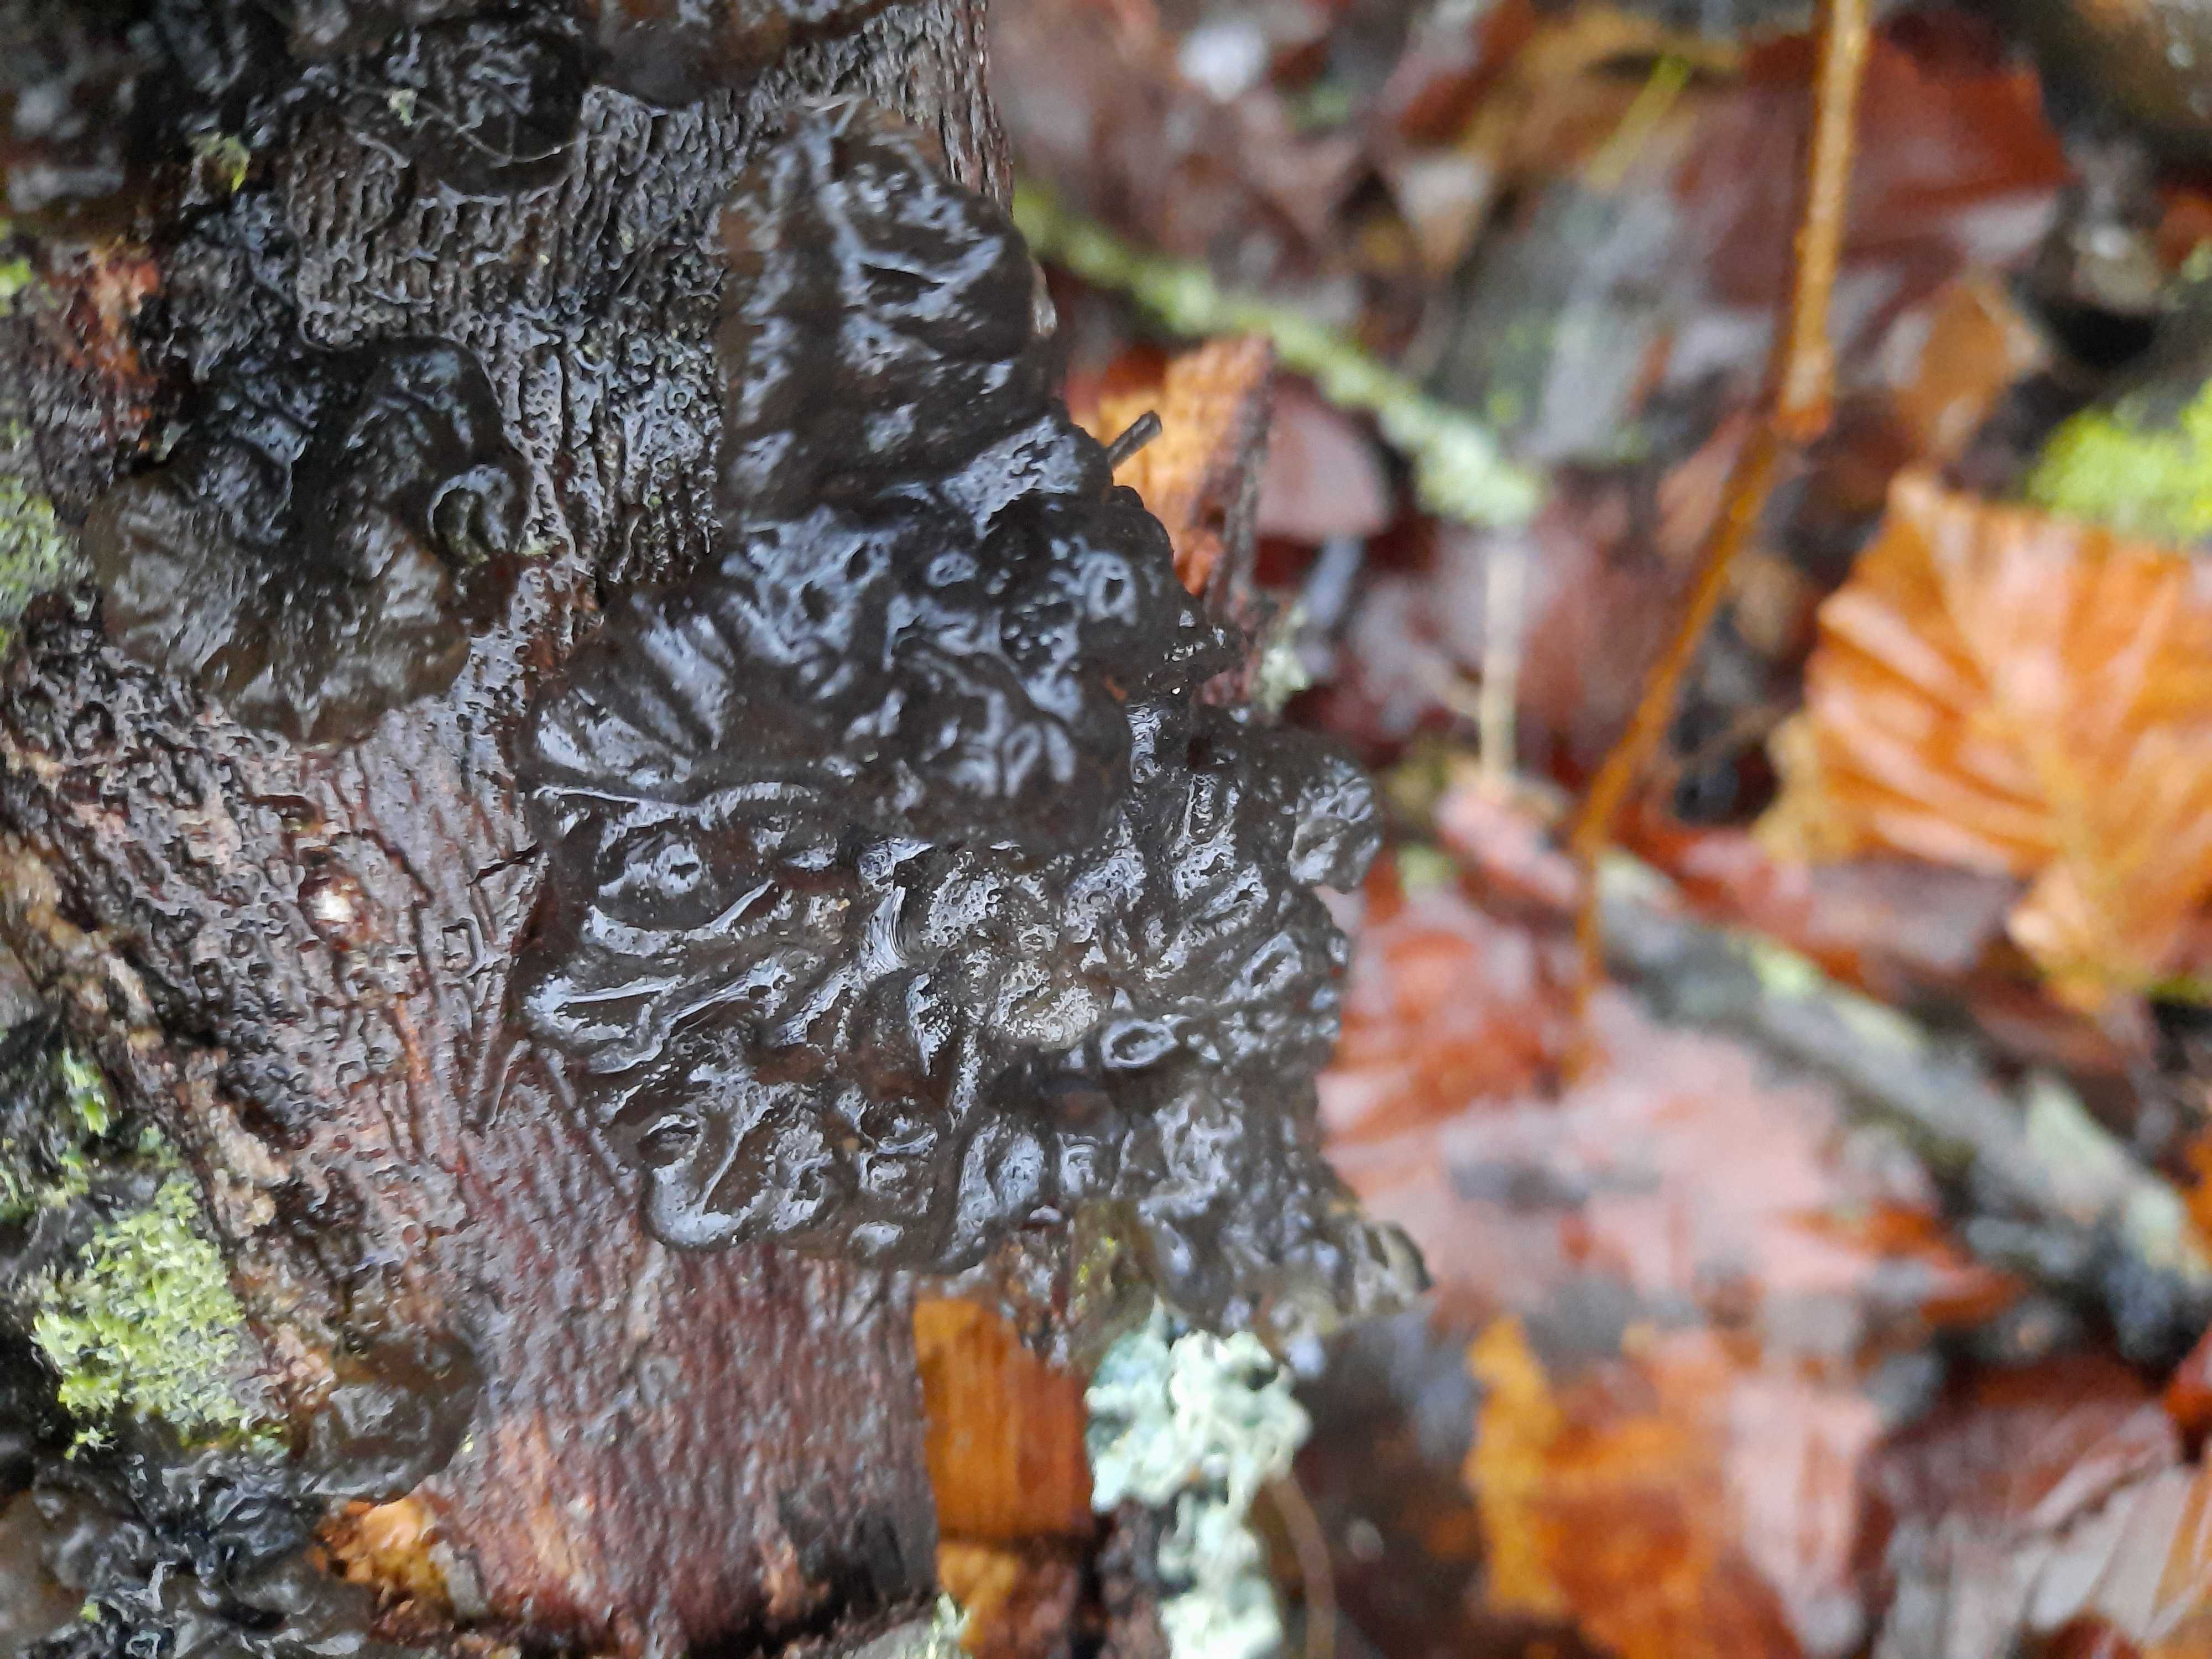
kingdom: Fungi
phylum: Basidiomycota
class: Agaricomycetes
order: Auriculariales
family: Auriculariaceae
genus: Exidia
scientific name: Exidia nigricans
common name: almindelig bævretop
